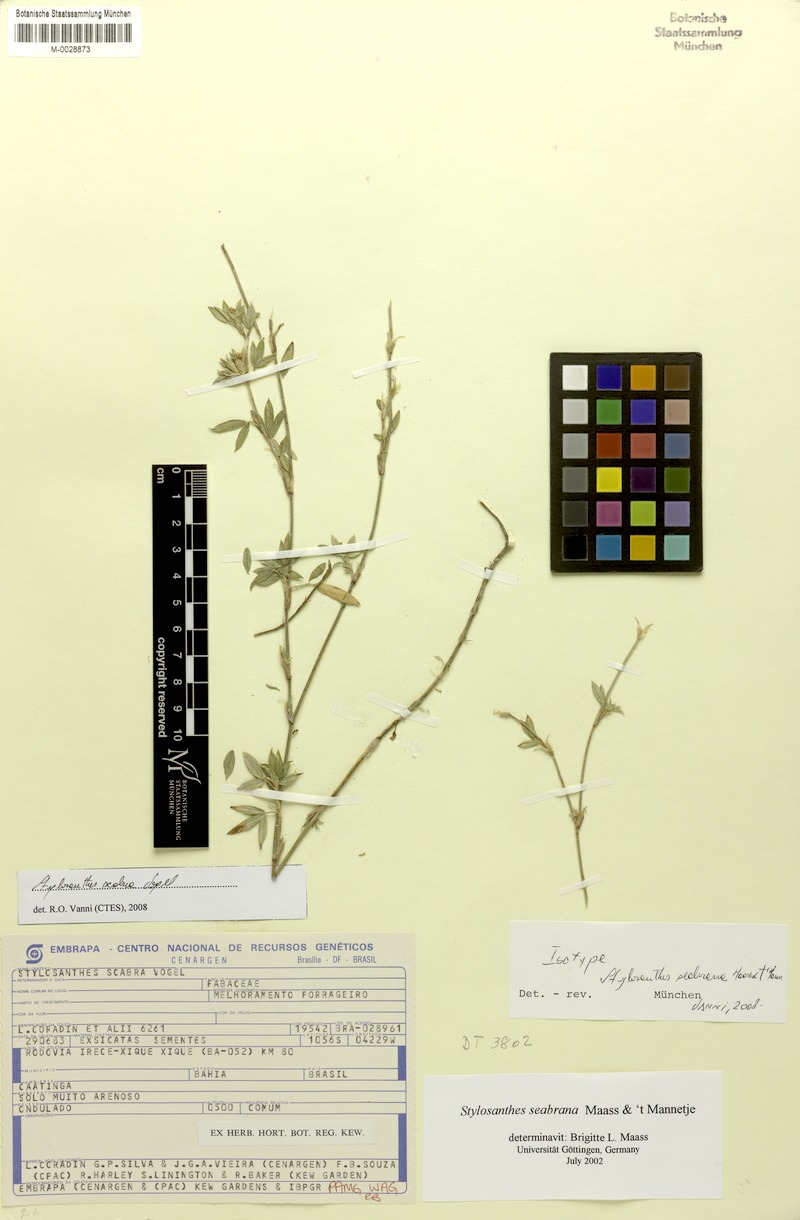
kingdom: Plantae
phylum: Tracheophyta
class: Magnoliopsida
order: Fabales
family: Fabaceae
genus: Stylosanthes
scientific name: Stylosanthes scabra
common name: Pencilflower
